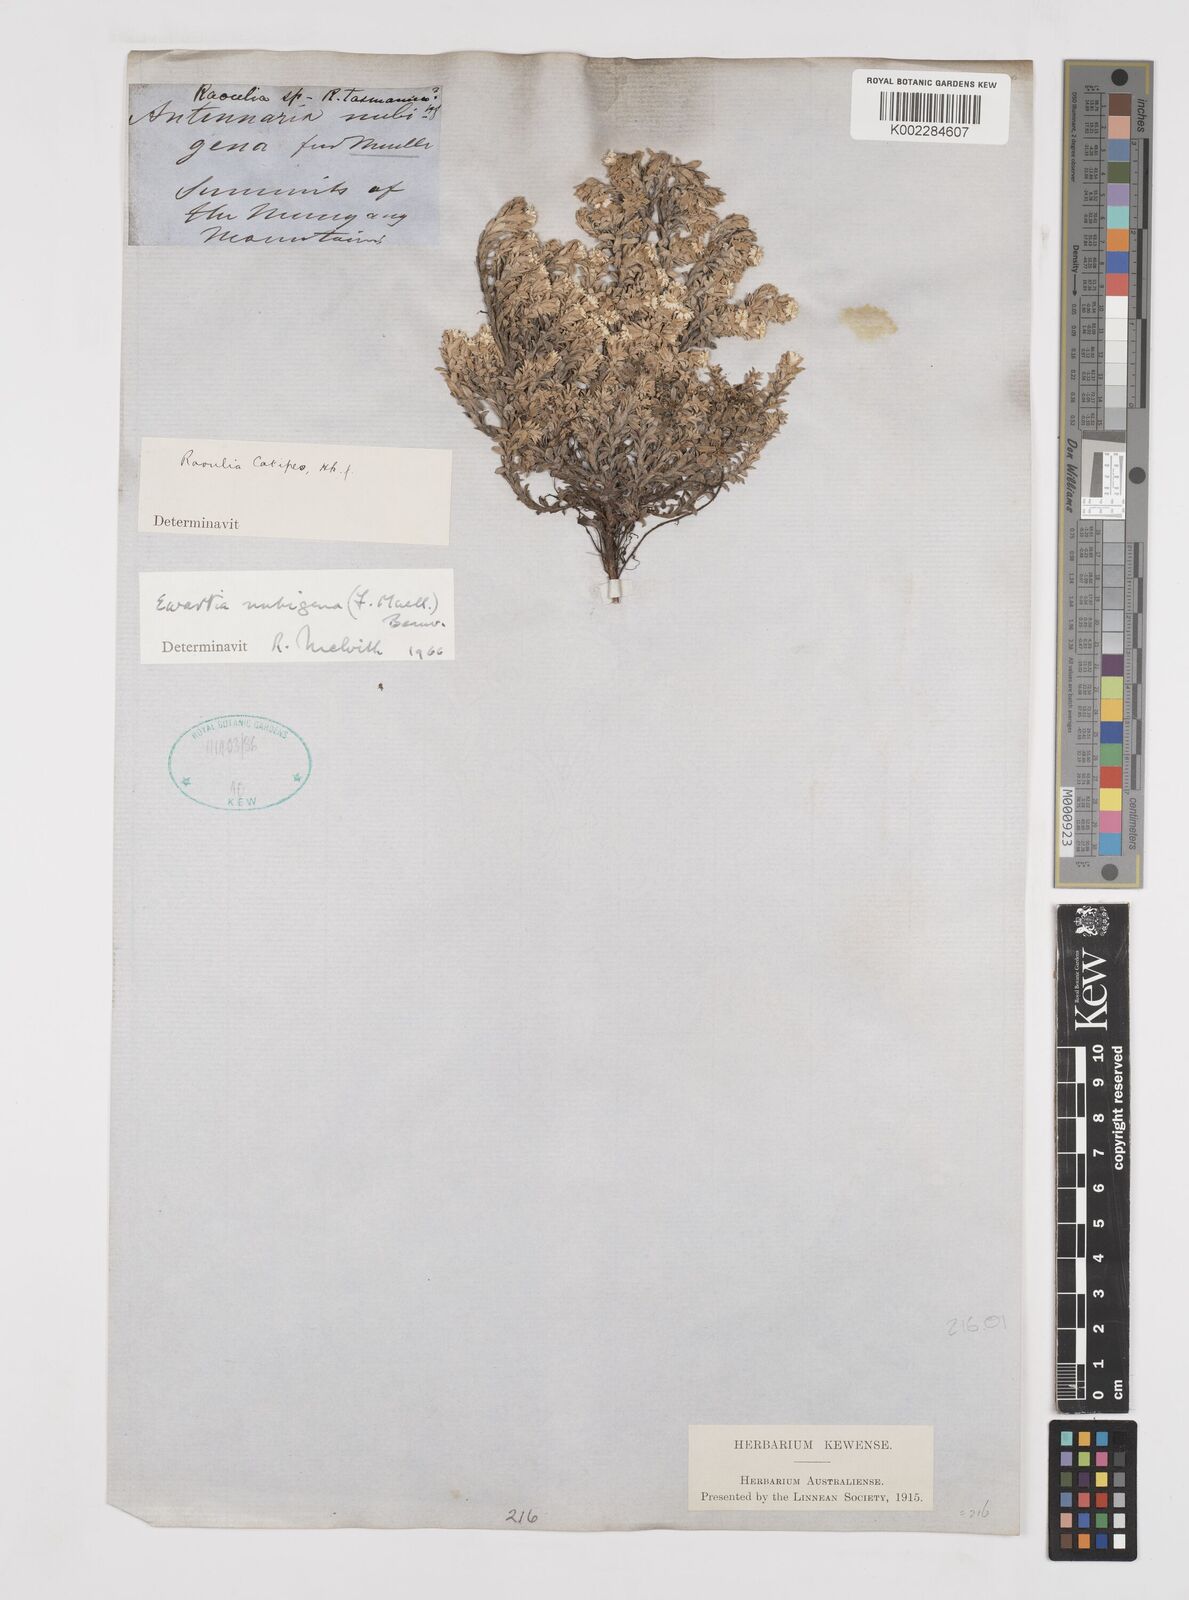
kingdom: Plantae
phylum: Tracheophyta
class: Magnoliopsida
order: Asterales
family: Asteraceae
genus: Ewartia
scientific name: Ewartia nubigena
